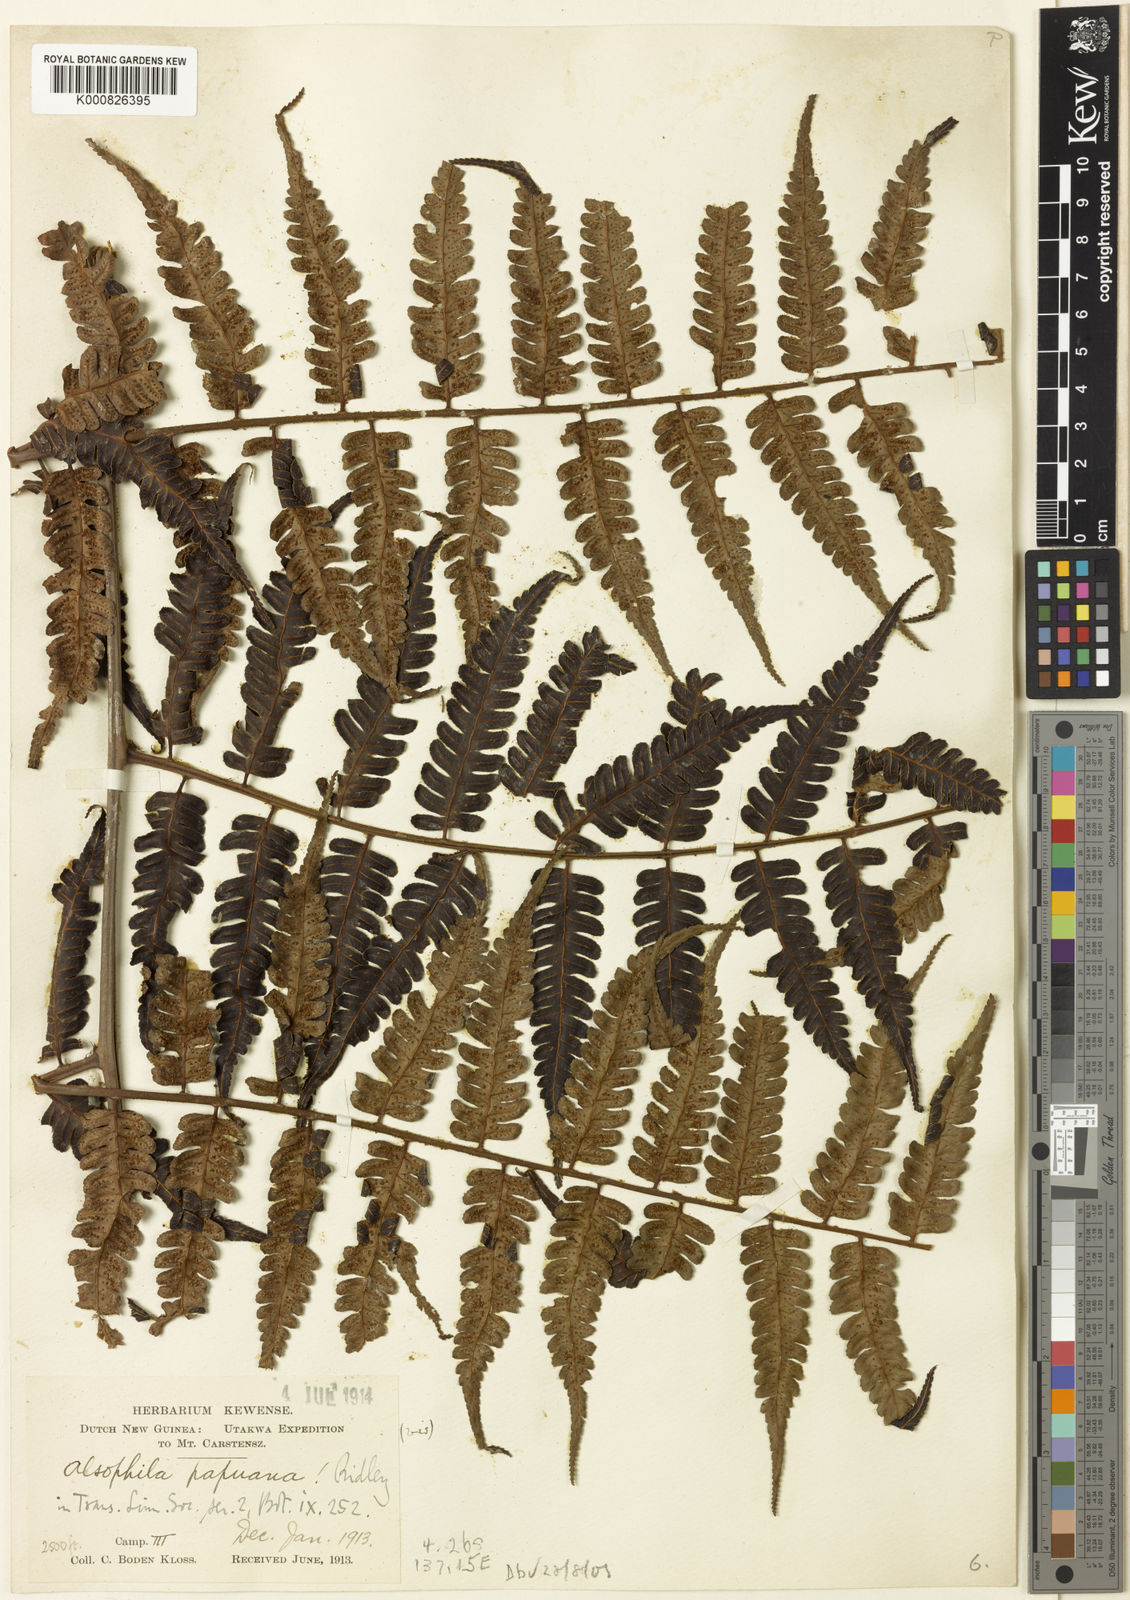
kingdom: Plantae
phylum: Tracheophyta
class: Polypodiopsida
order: Cyatheales
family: Cyatheaceae
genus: Sphaeropteris
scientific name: Sphaeropteris papuana
